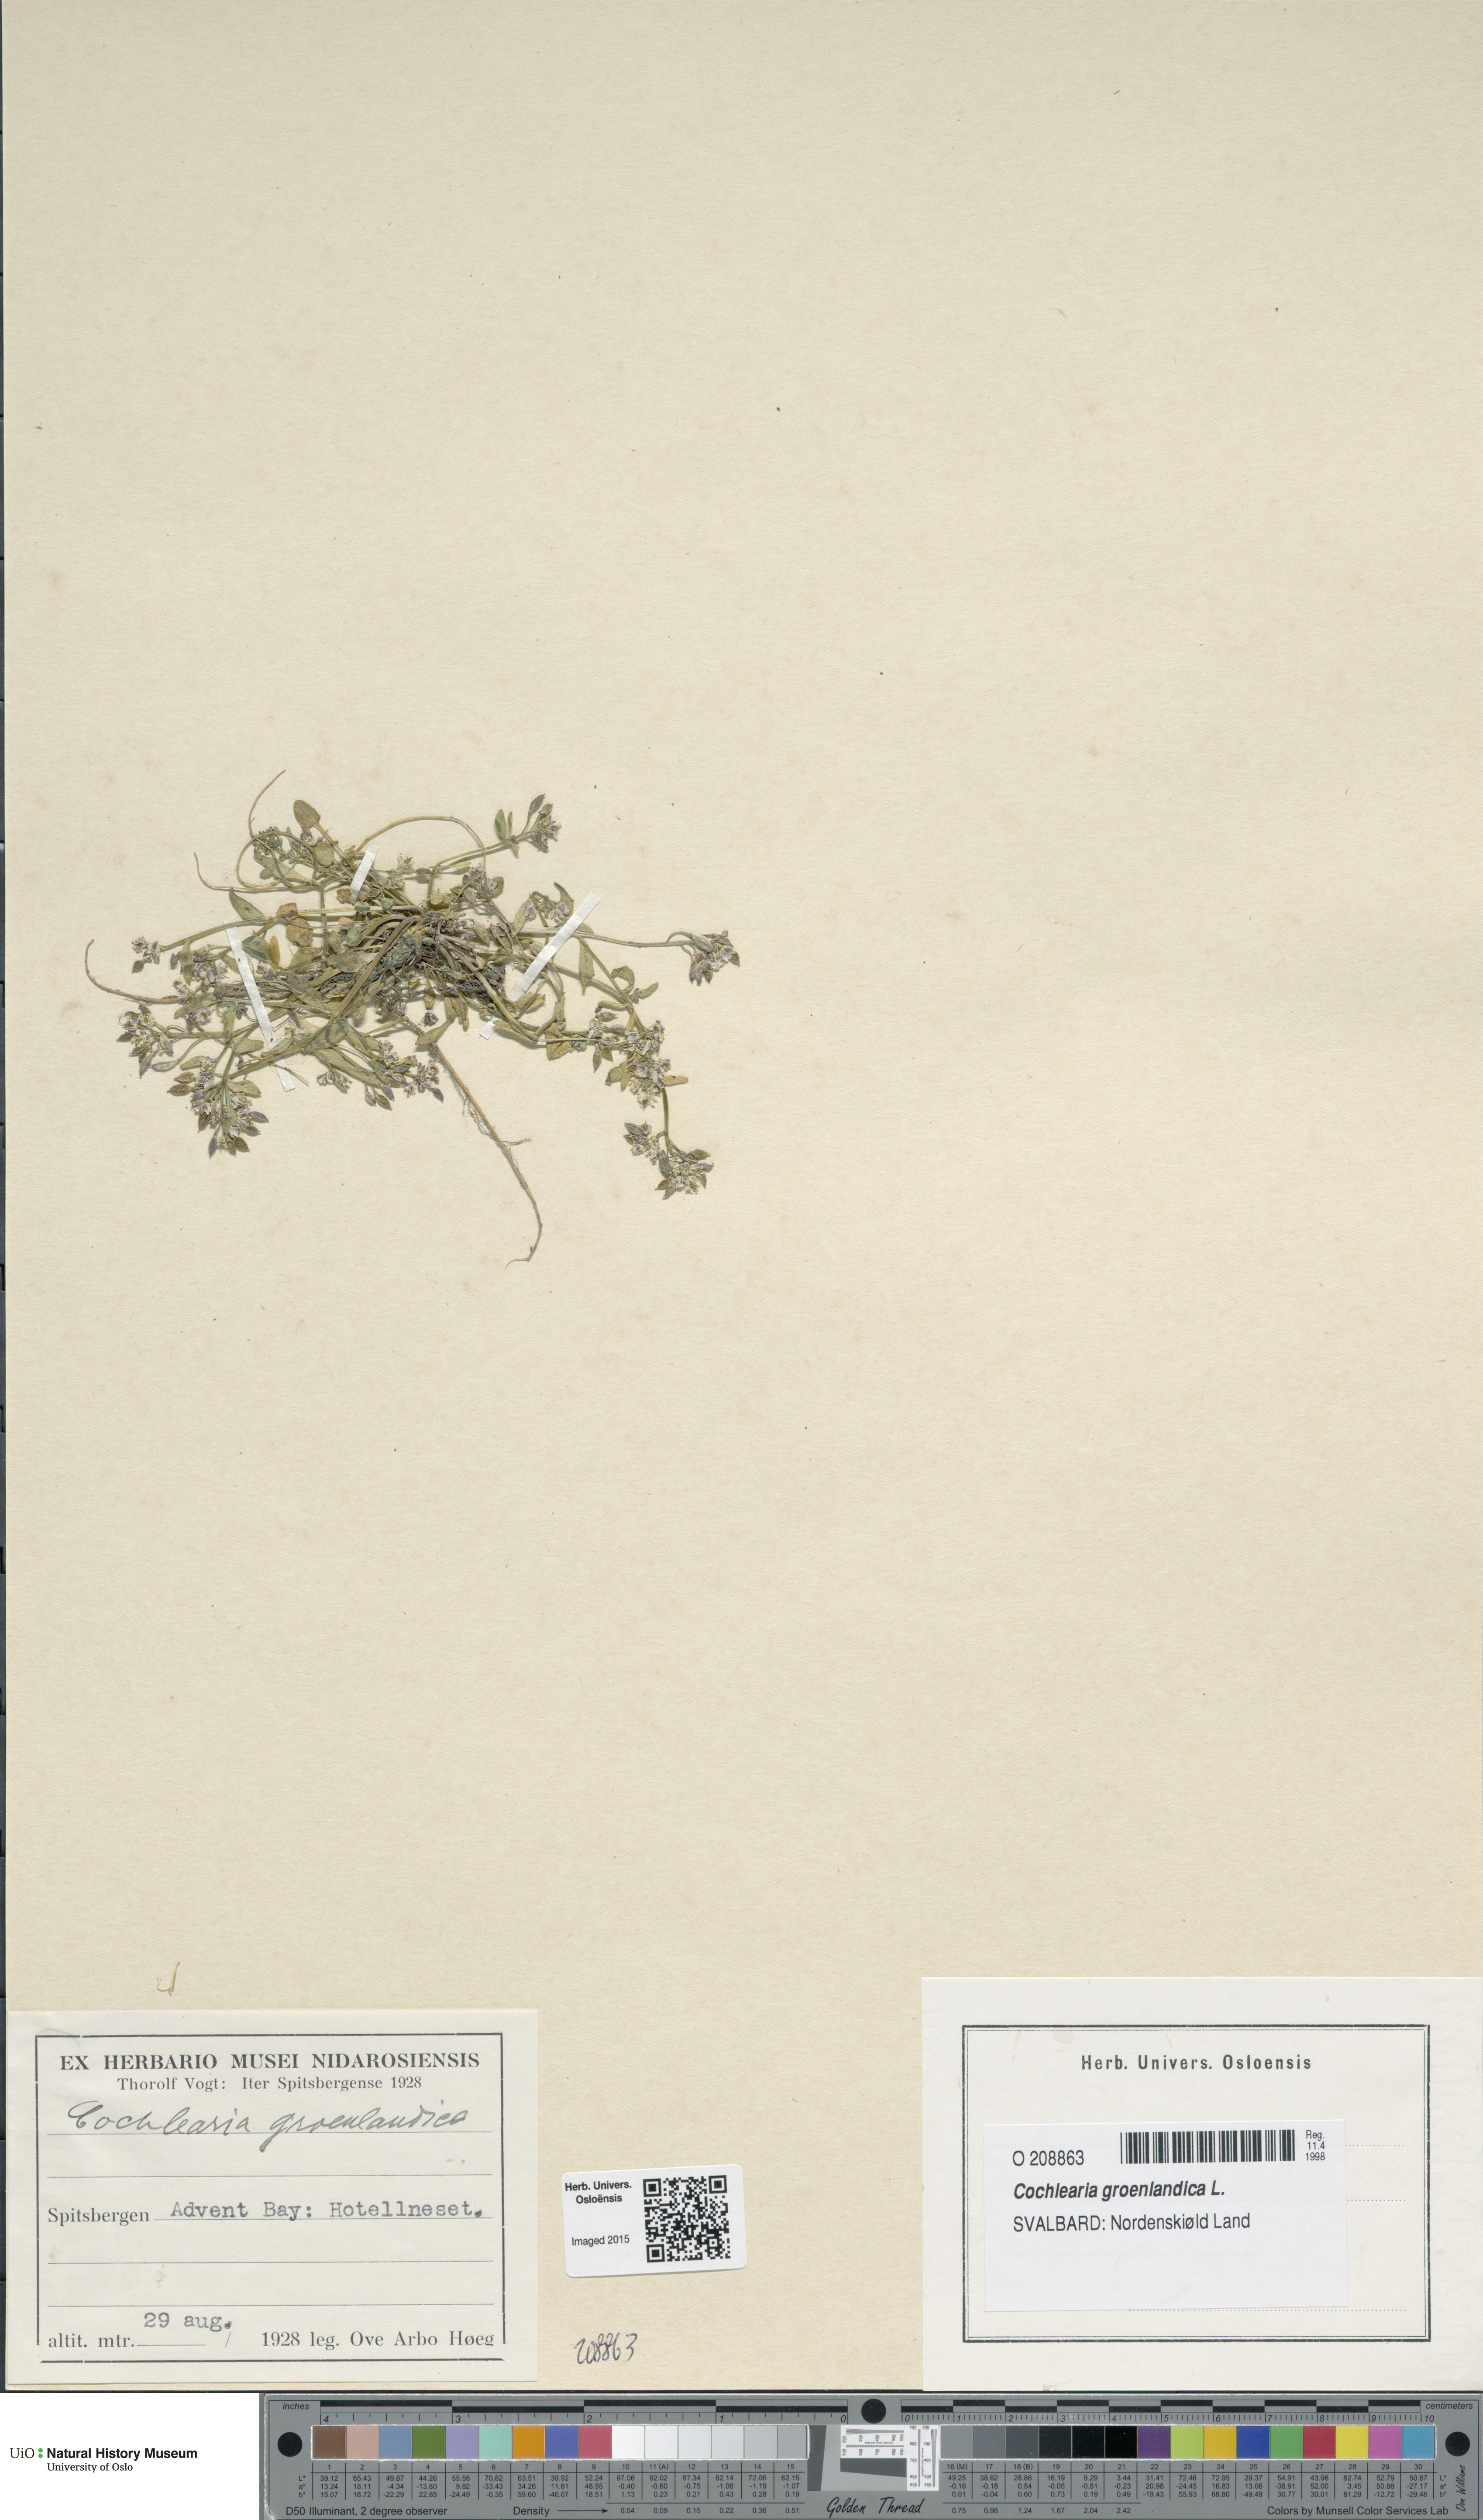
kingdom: Plantae
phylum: Tracheophyta
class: Magnoliopsida
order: Brassicales
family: Brassicaceae
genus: Cochlearia
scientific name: Cochlearia groenlandica
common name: Danish scurvygrass
